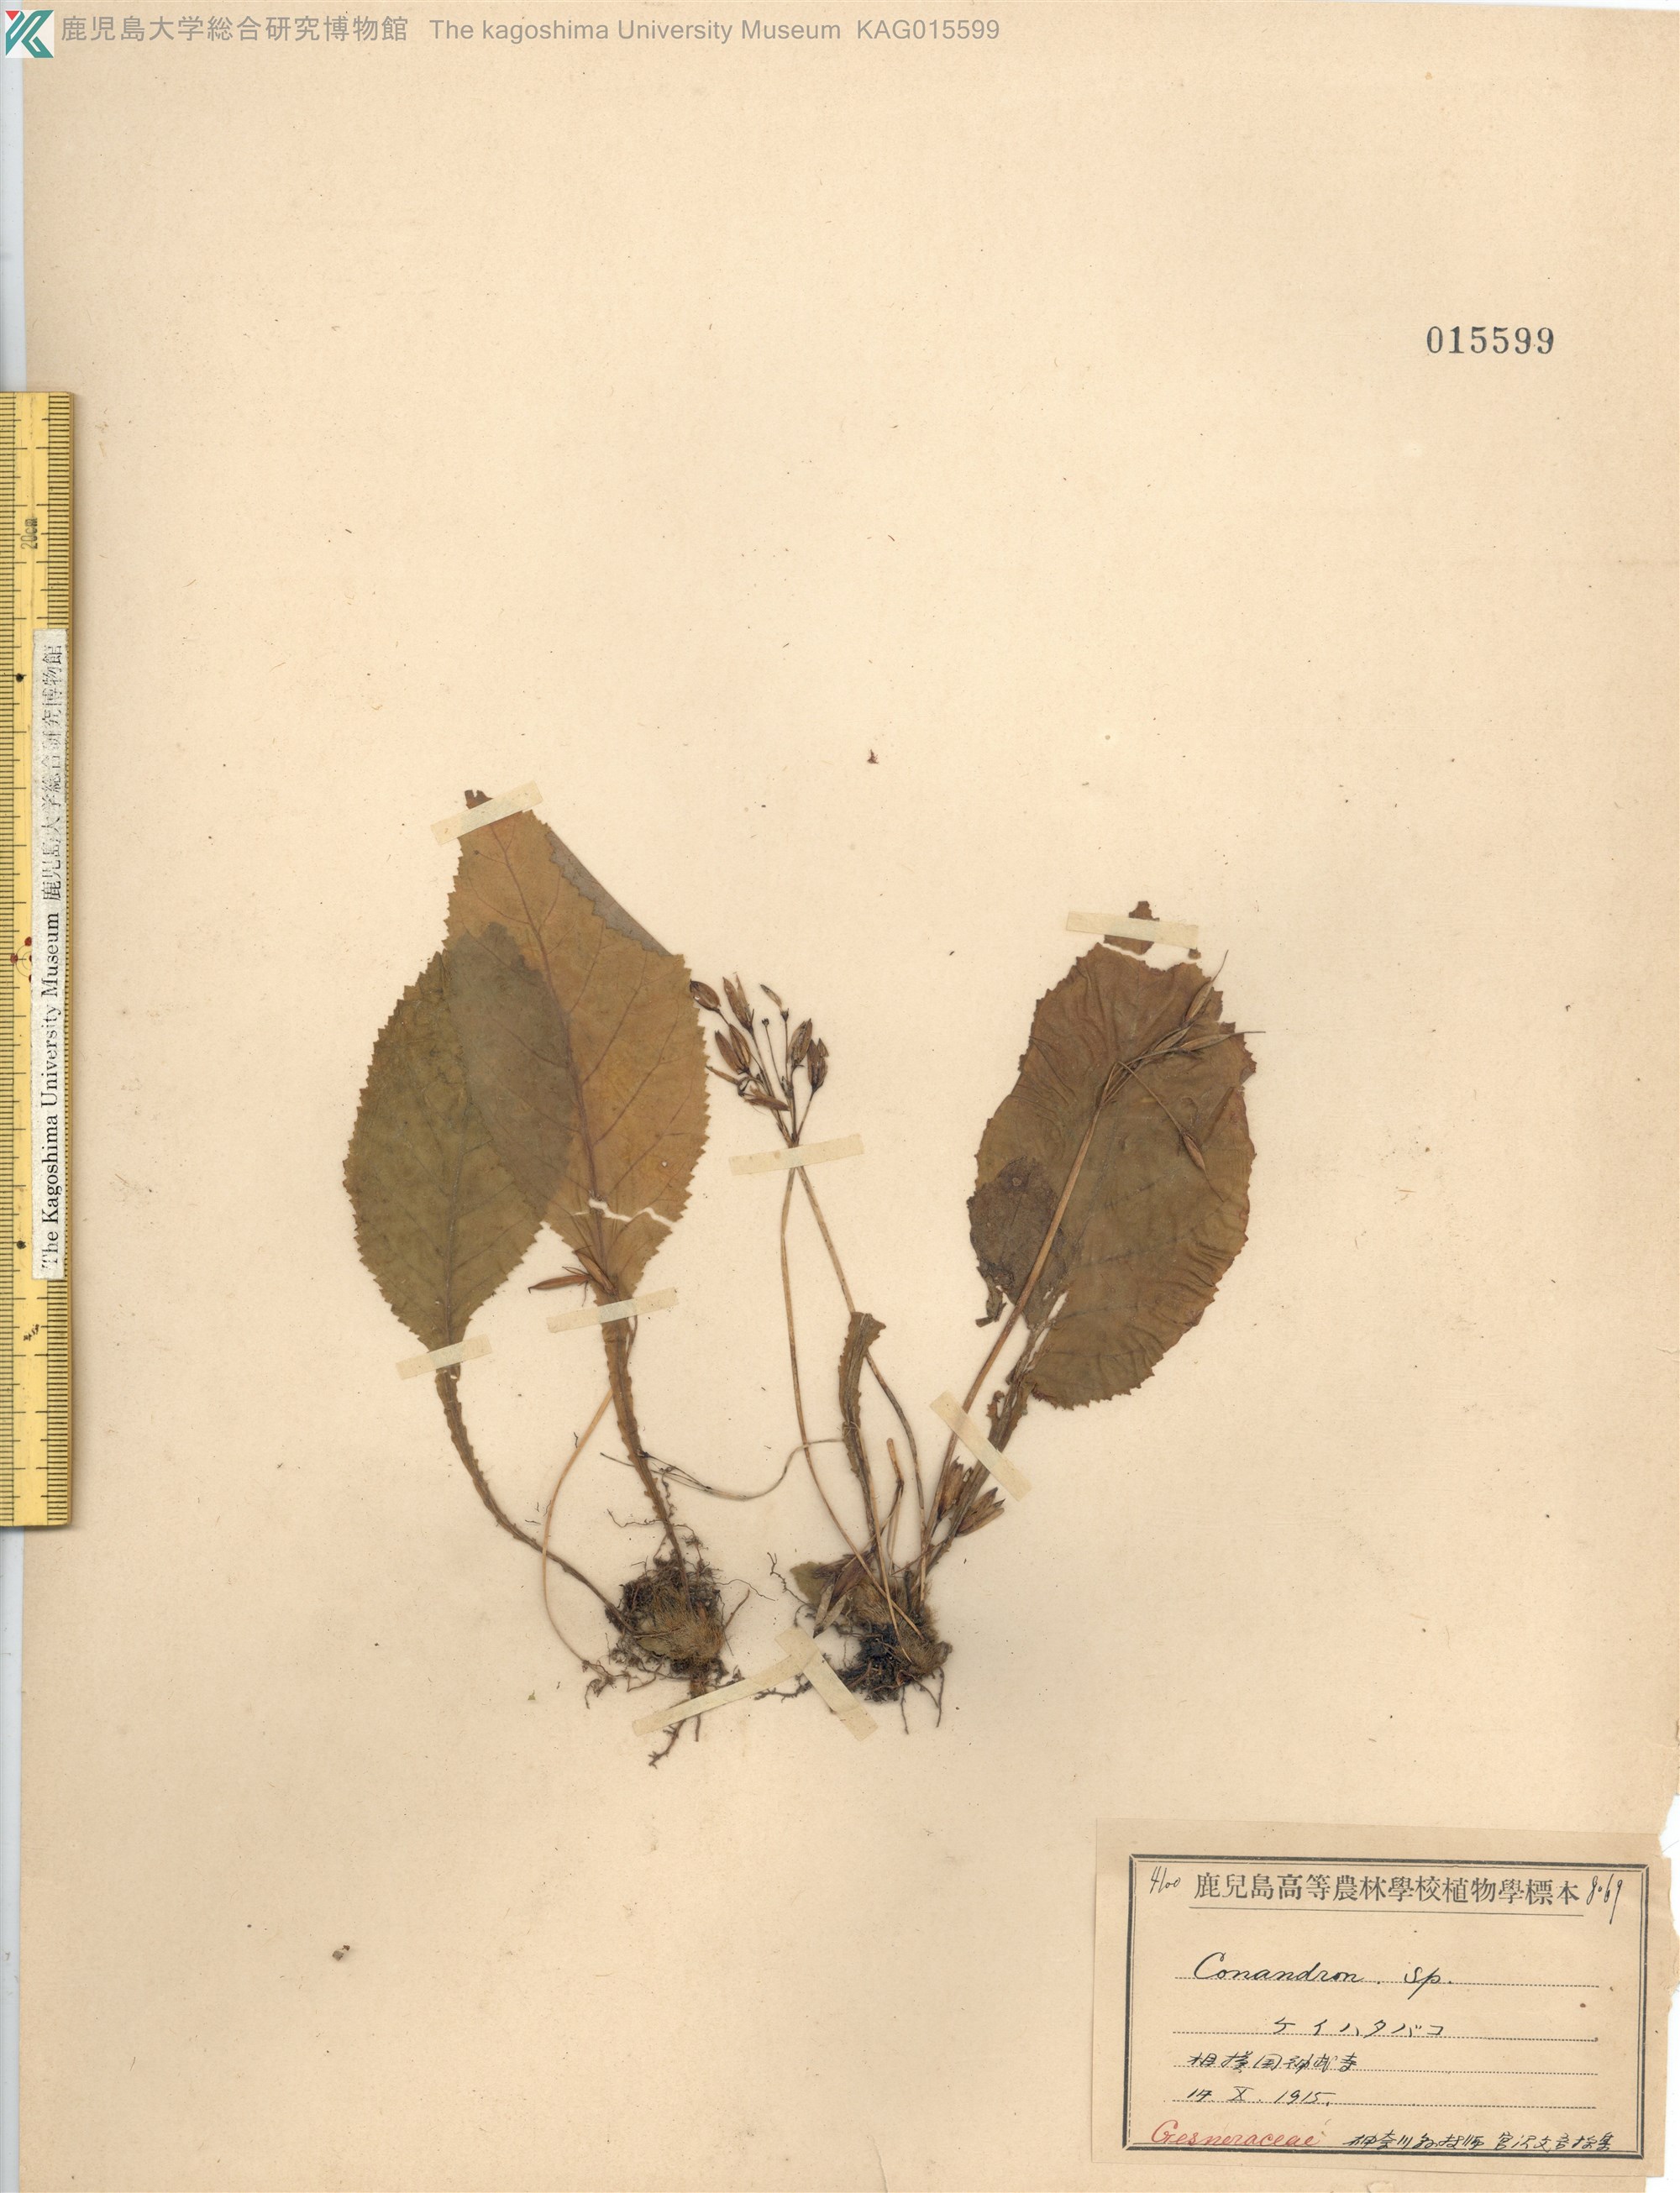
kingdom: Plantae
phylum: Tracheophyta
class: Magnoliopsida
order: Lamiales
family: Gesneriaceae
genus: Conandron
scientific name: Conandron ramondioides
